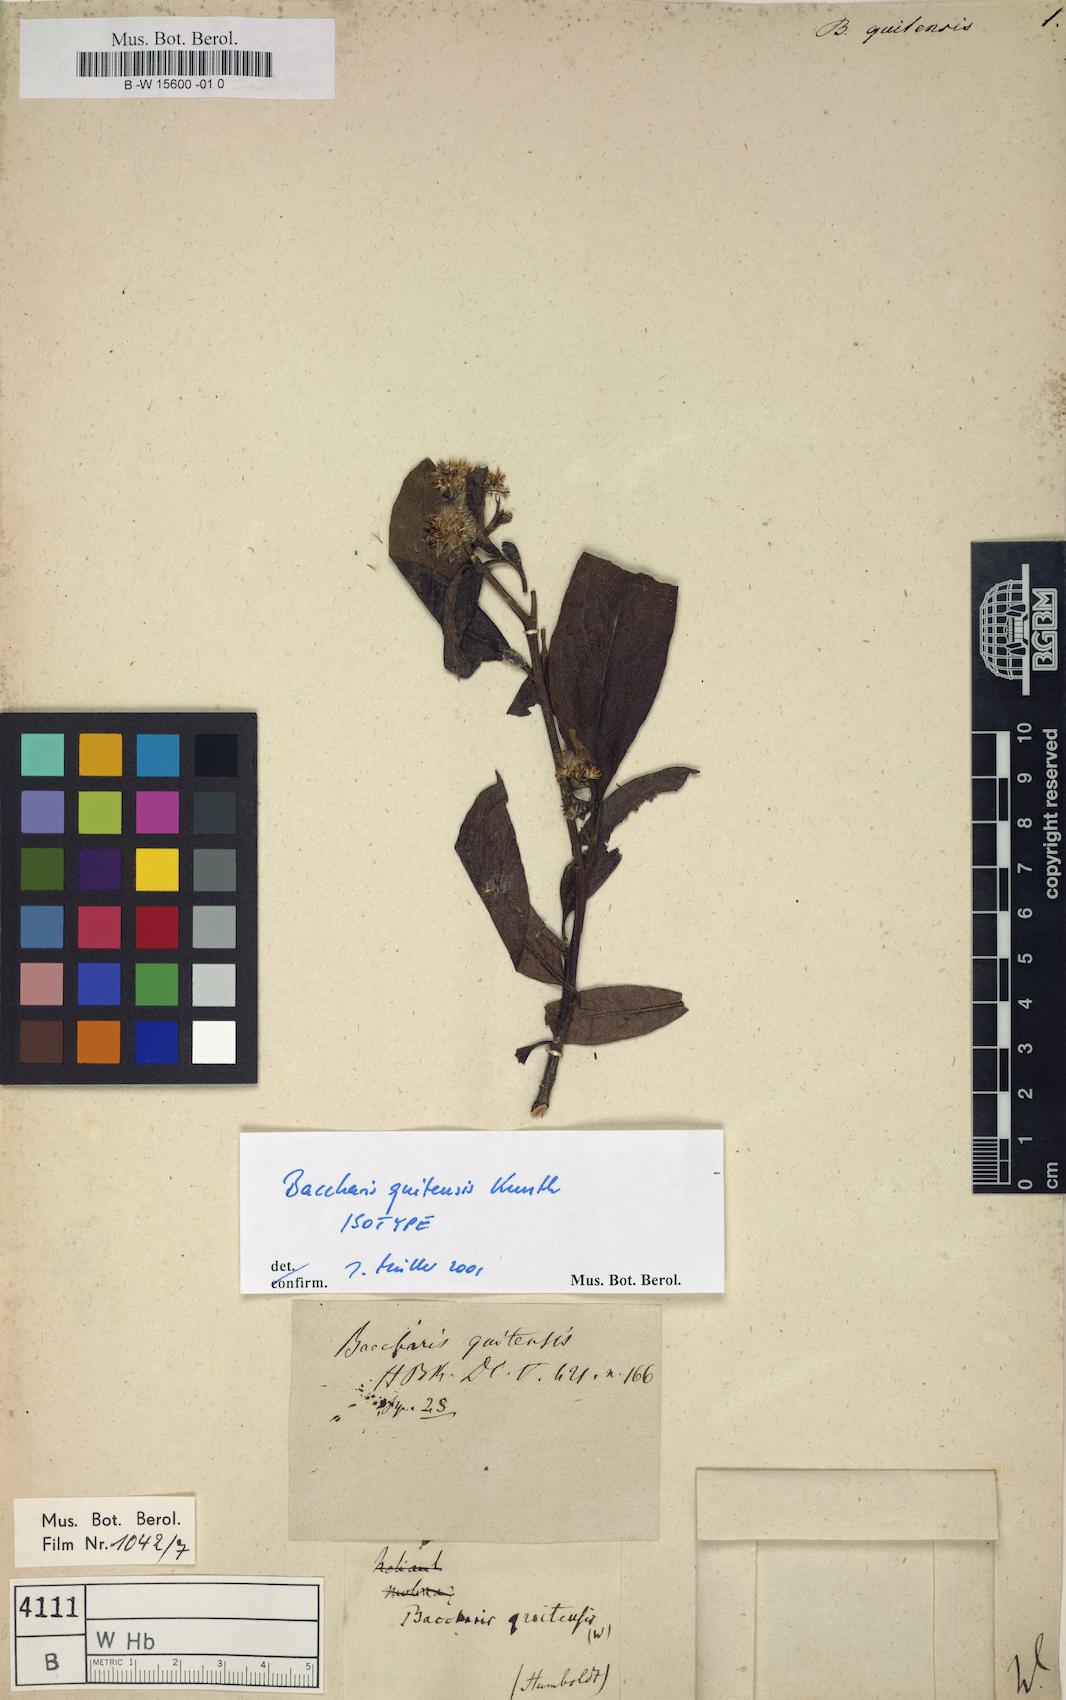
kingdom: Plantae
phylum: Tracheophyta
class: Magnoliopsida
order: Asterales
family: Asteraceae
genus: Baccharis
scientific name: Baccharis quitensis
